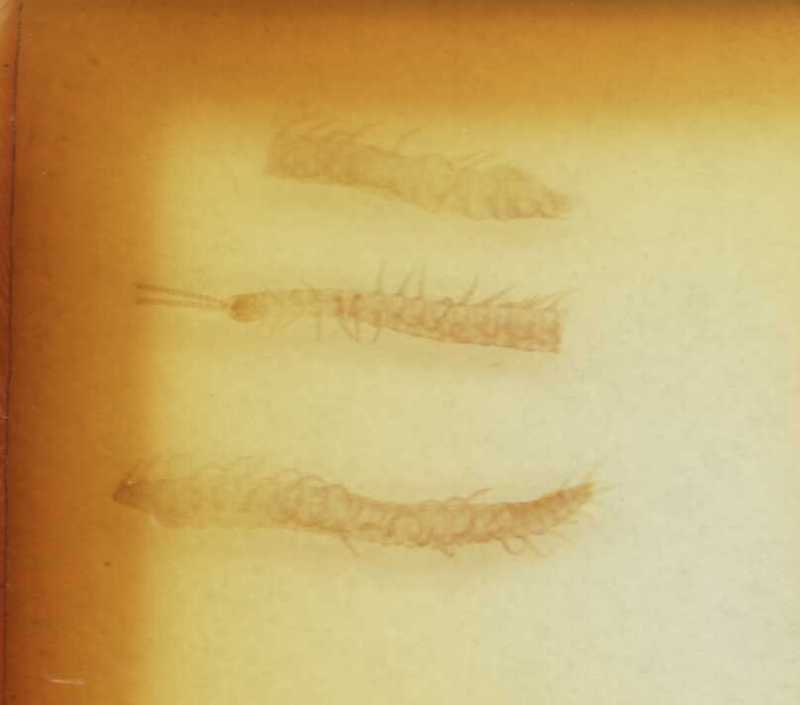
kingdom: Animalia
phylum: Arthropoda
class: Chilopoda
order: Geophilomorpha
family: Linotaeniidae
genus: Strigamia
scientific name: Strigamia transsilvanica
